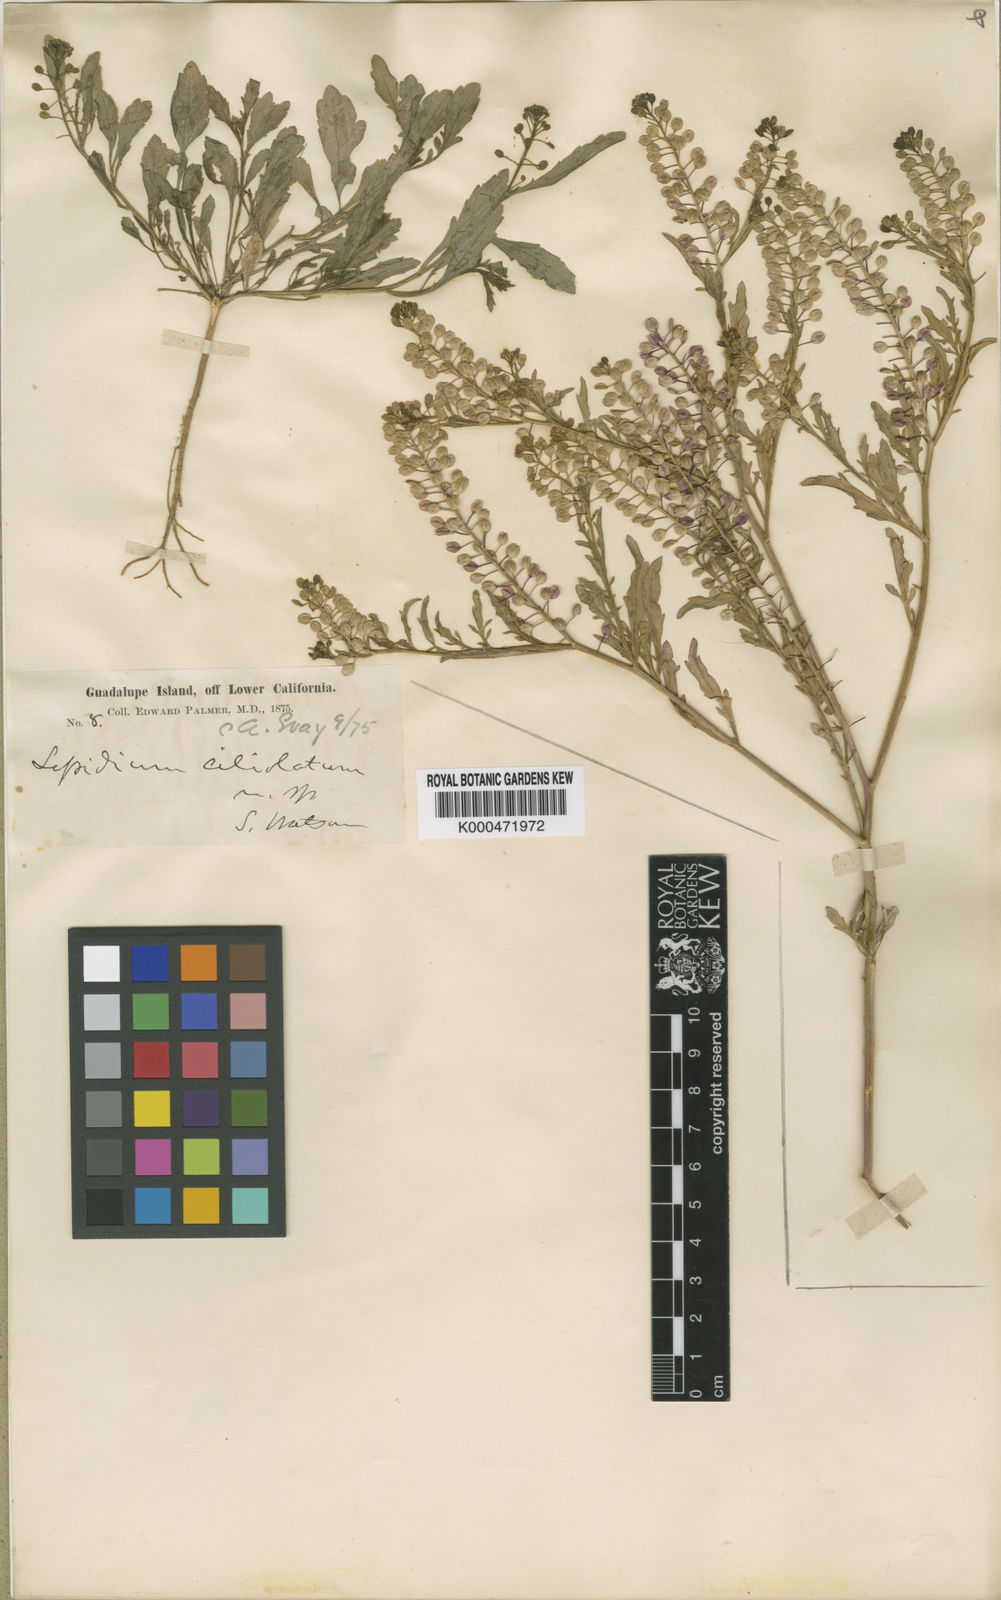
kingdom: Plantae
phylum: Tracheophyta
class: Magnoliopsida
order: Brassicales
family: Brassicaceae
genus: Lepidium
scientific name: Lepidium lasiocarpum
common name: Hairy-pod pepperwort
